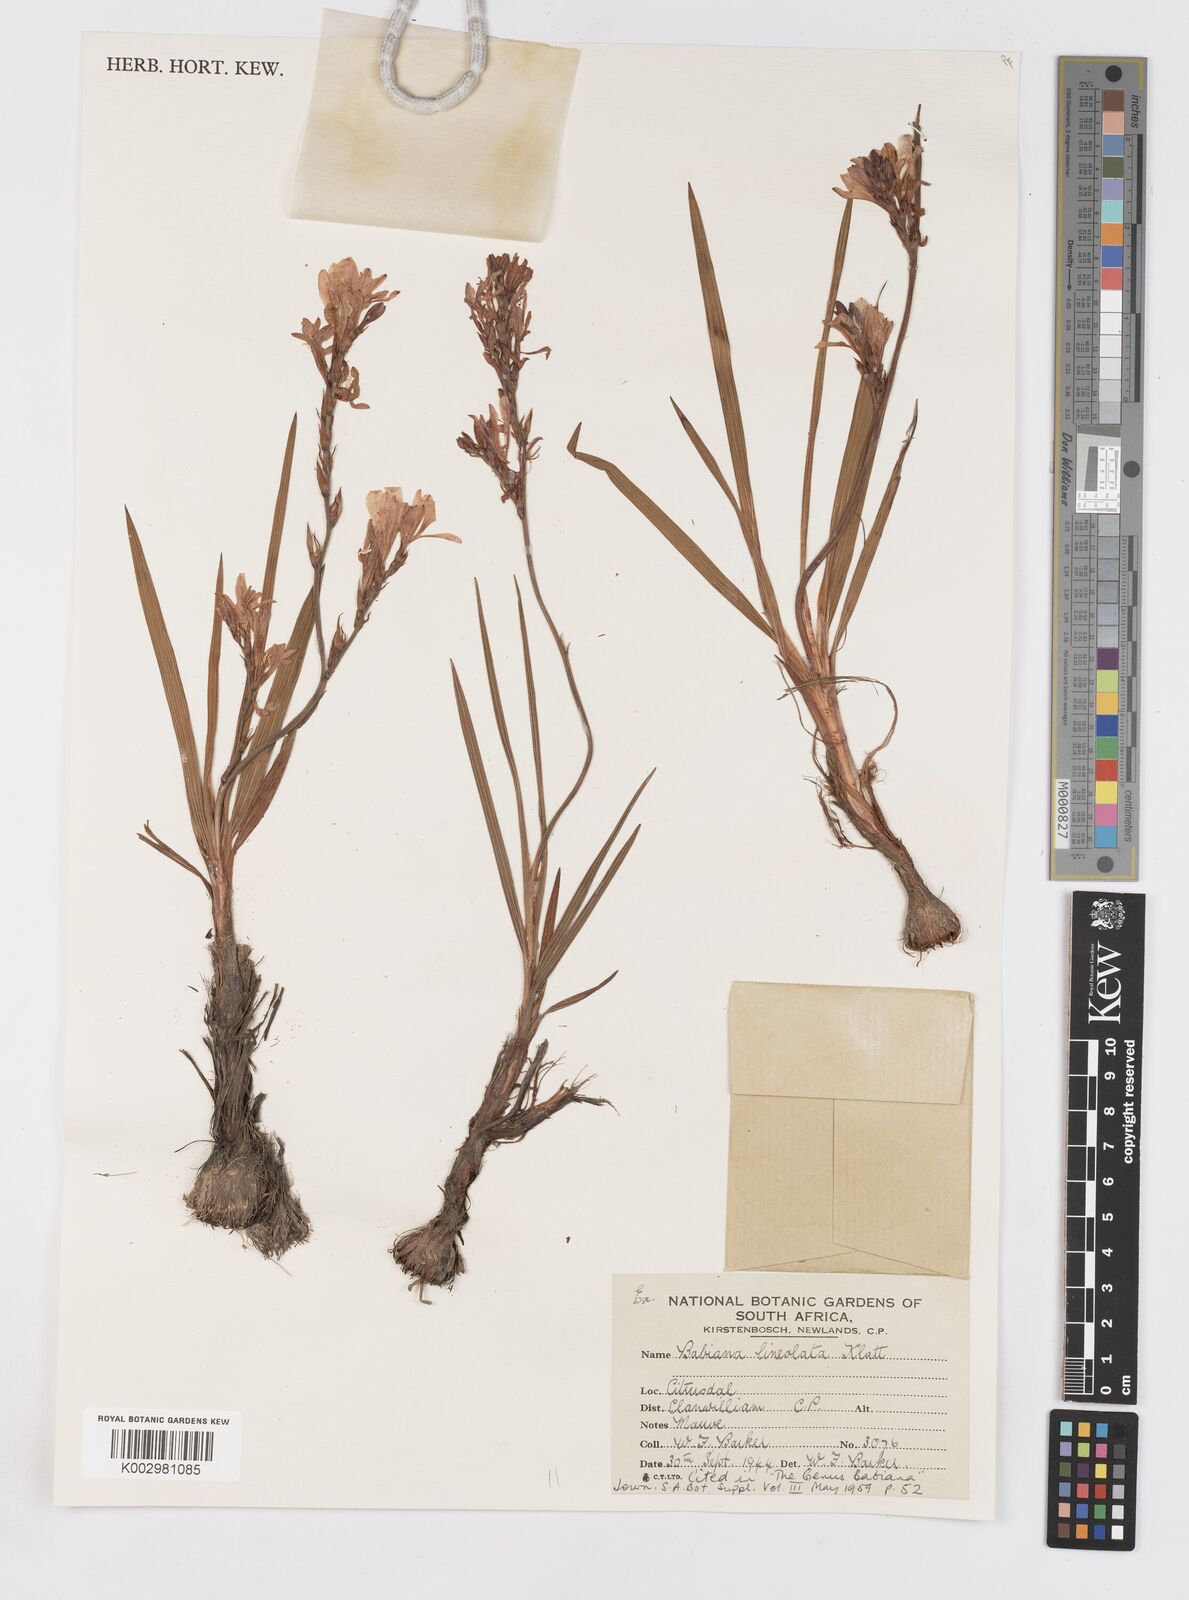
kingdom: Plantae
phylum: Tracheophyta
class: Liliopsida
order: Asparagales
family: Iridaceae
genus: Babiana
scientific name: Babiana lineolata
